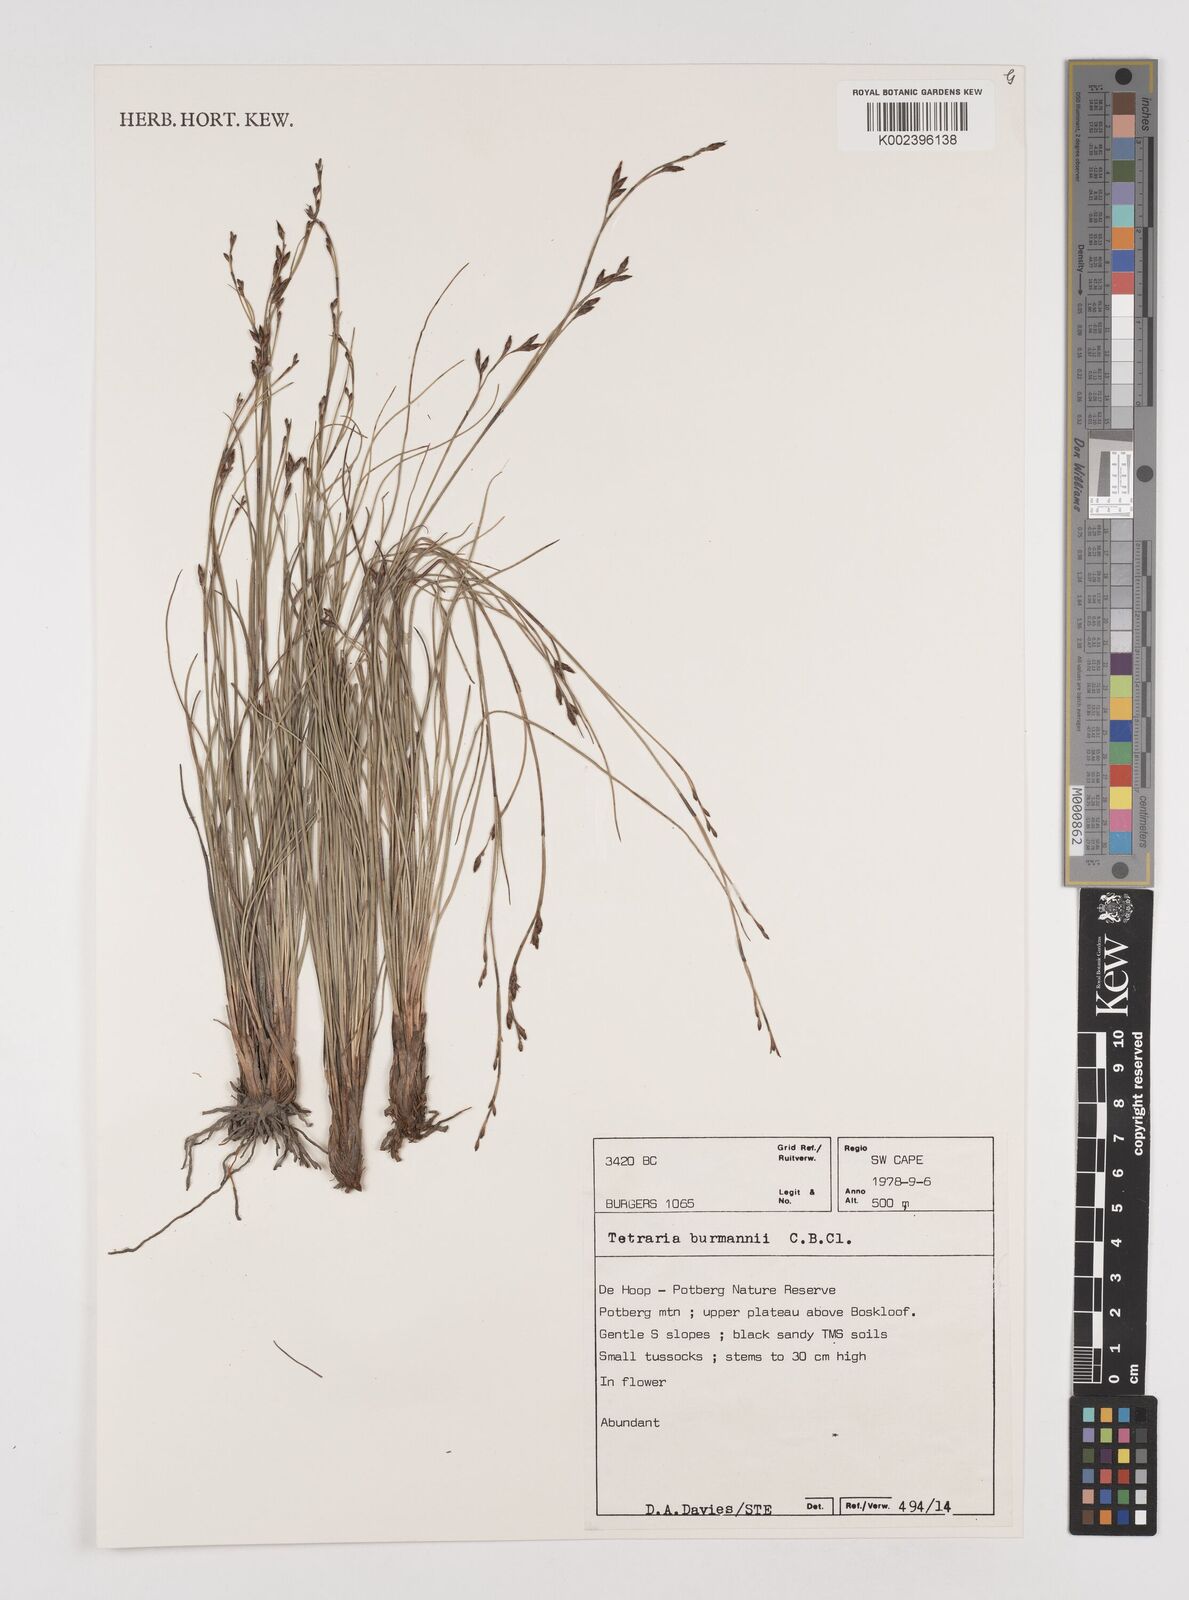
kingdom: Plantae
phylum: Tracheophyta
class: Liliopsida
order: Poales
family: Cyperaceae
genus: Tetraria
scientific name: Tetraria burmanni
